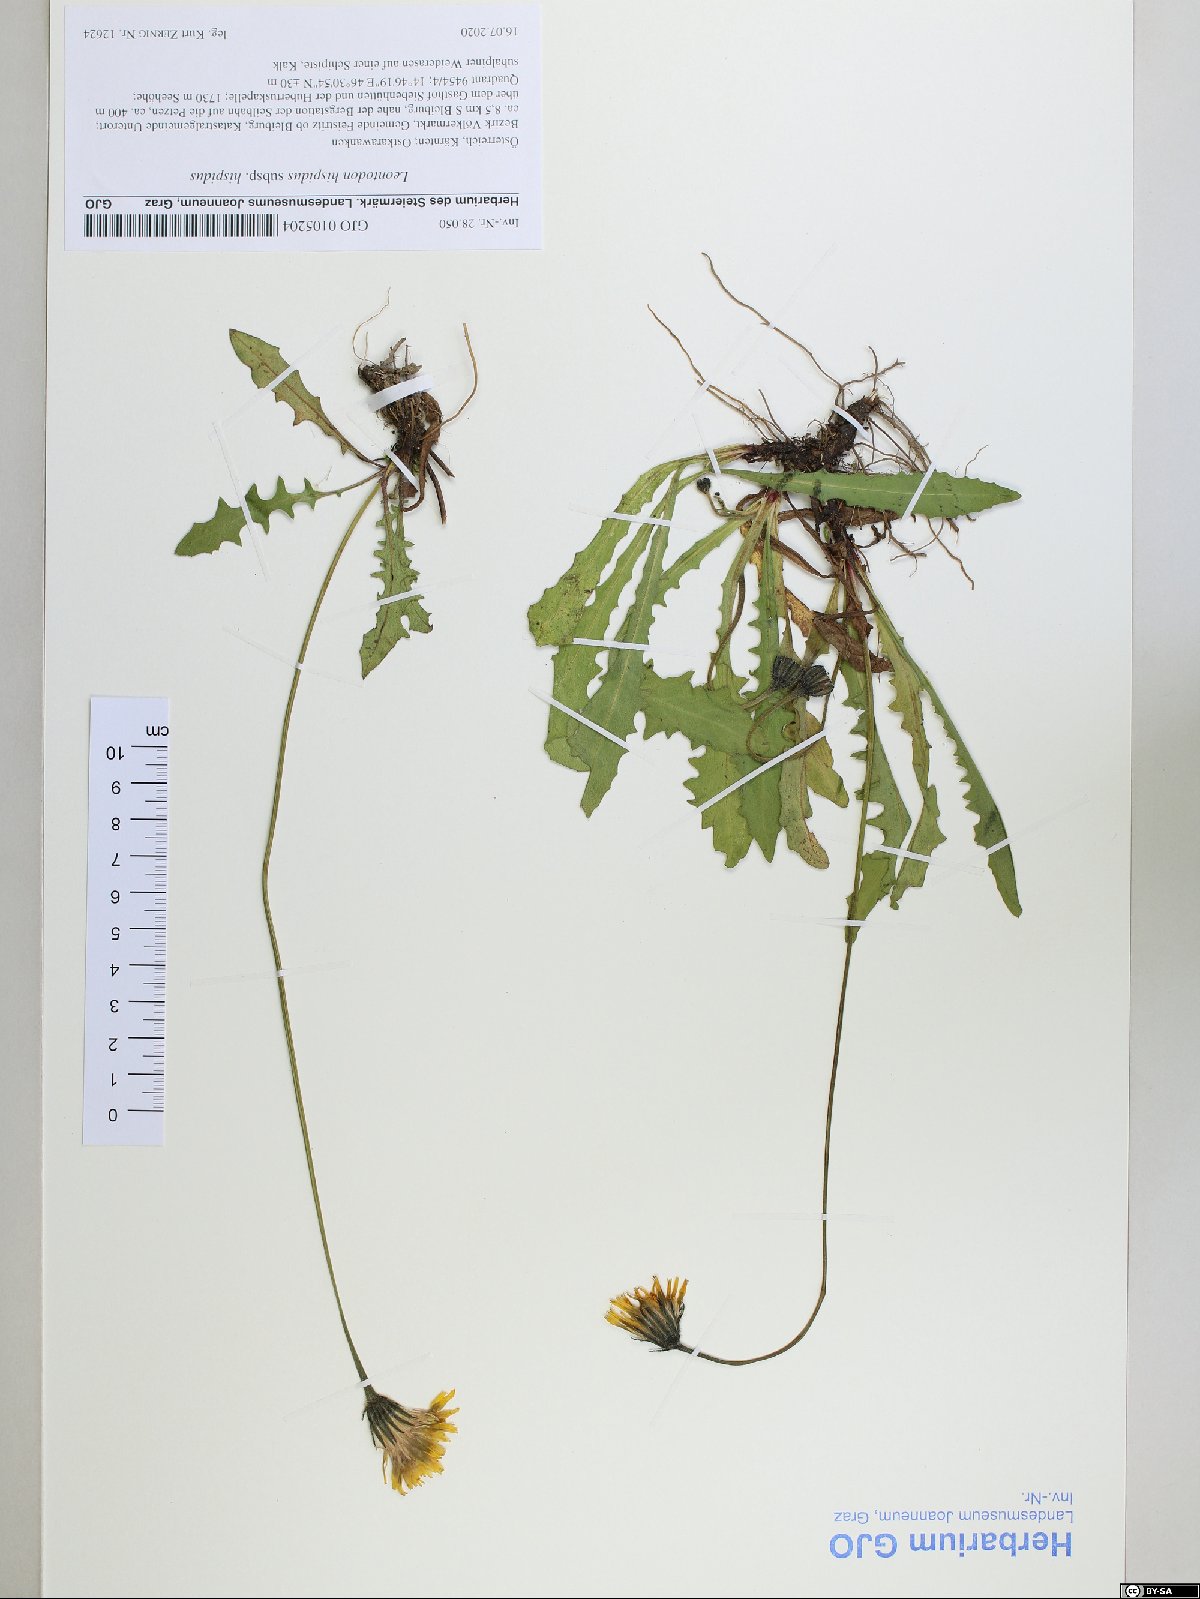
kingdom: Plantae
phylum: Tracheophyta
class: Magnoliopsida
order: Asterales
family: Asteraceae
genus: Leontodon
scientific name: Leontodon hispidus
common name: Rough hawkbit
